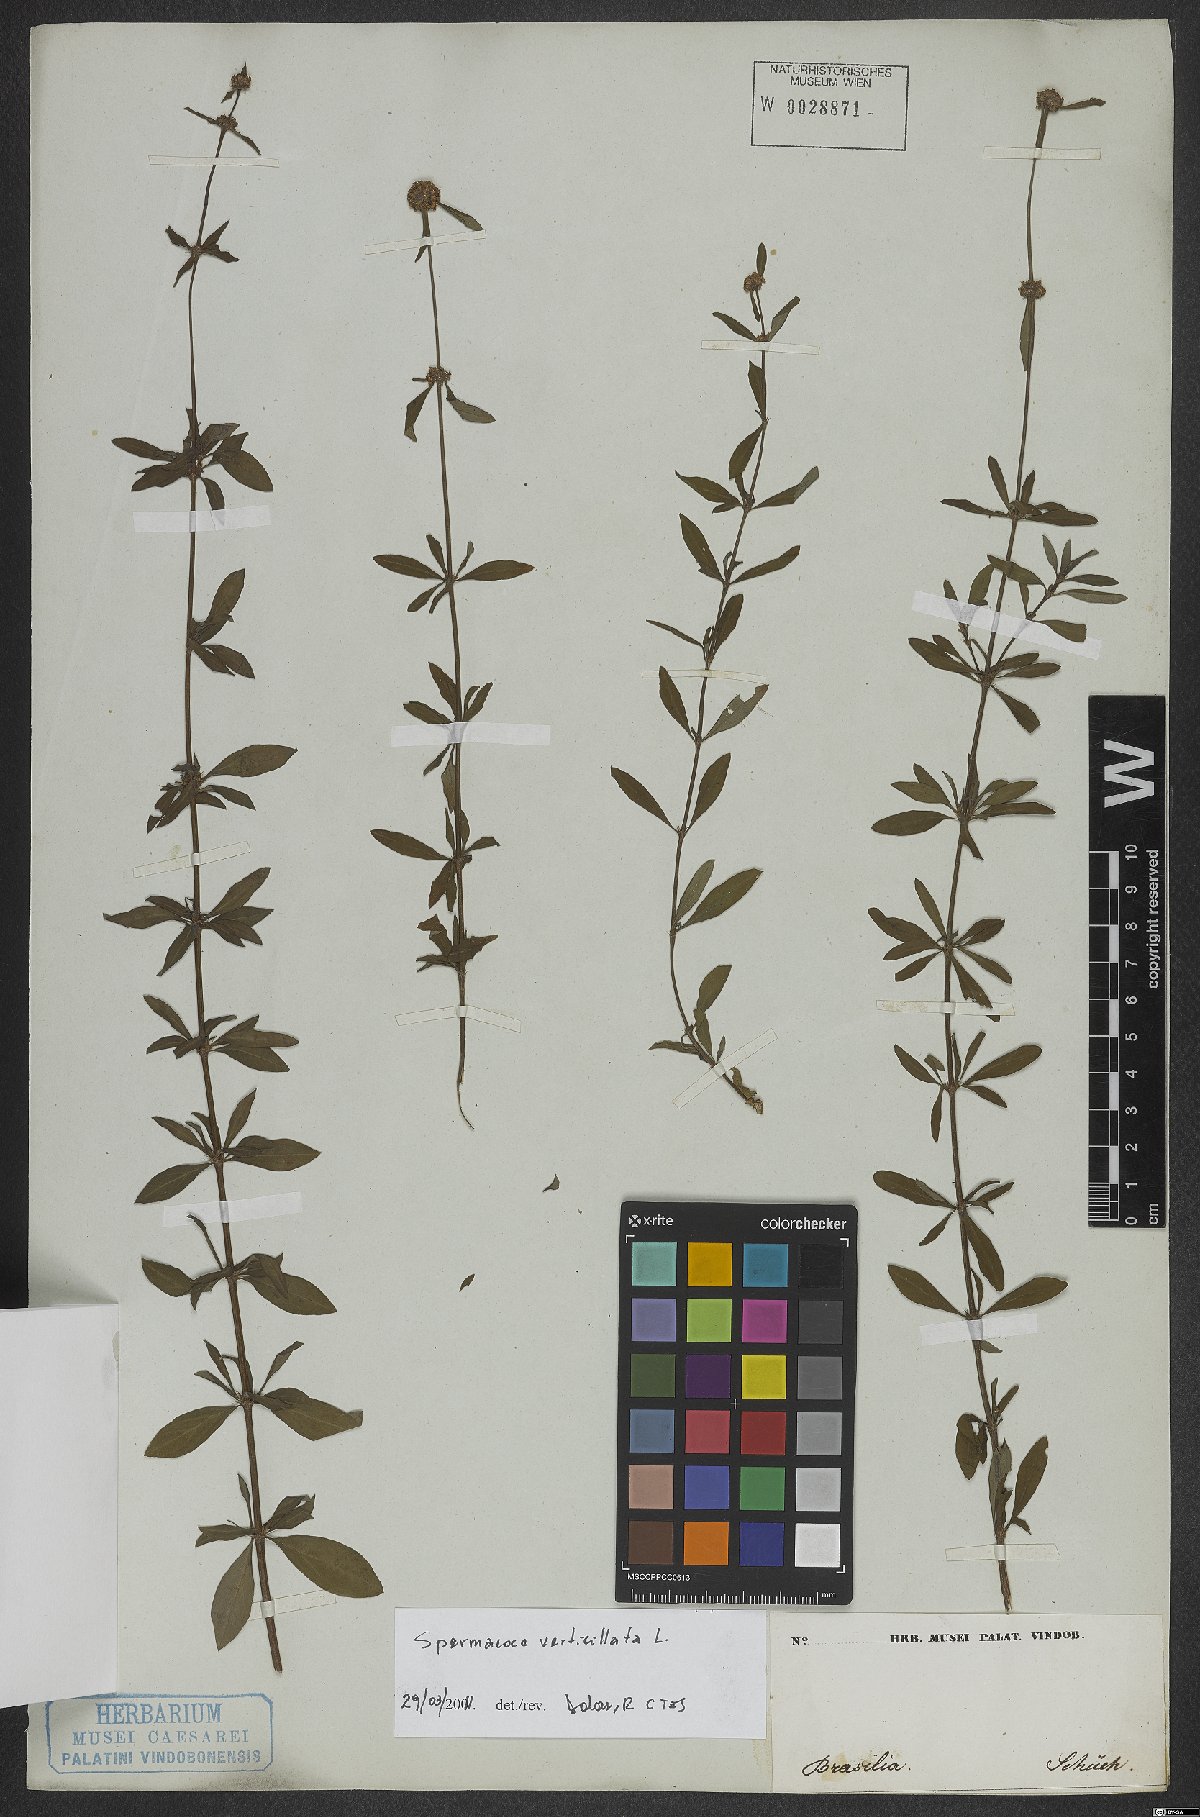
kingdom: Plantae
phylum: Tracheophyta
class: Magnoliopsida
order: Gentianales
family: Rubiaceae
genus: Spermacoce
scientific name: Spermacoce verticillata
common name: Shrubby false buttonweed
